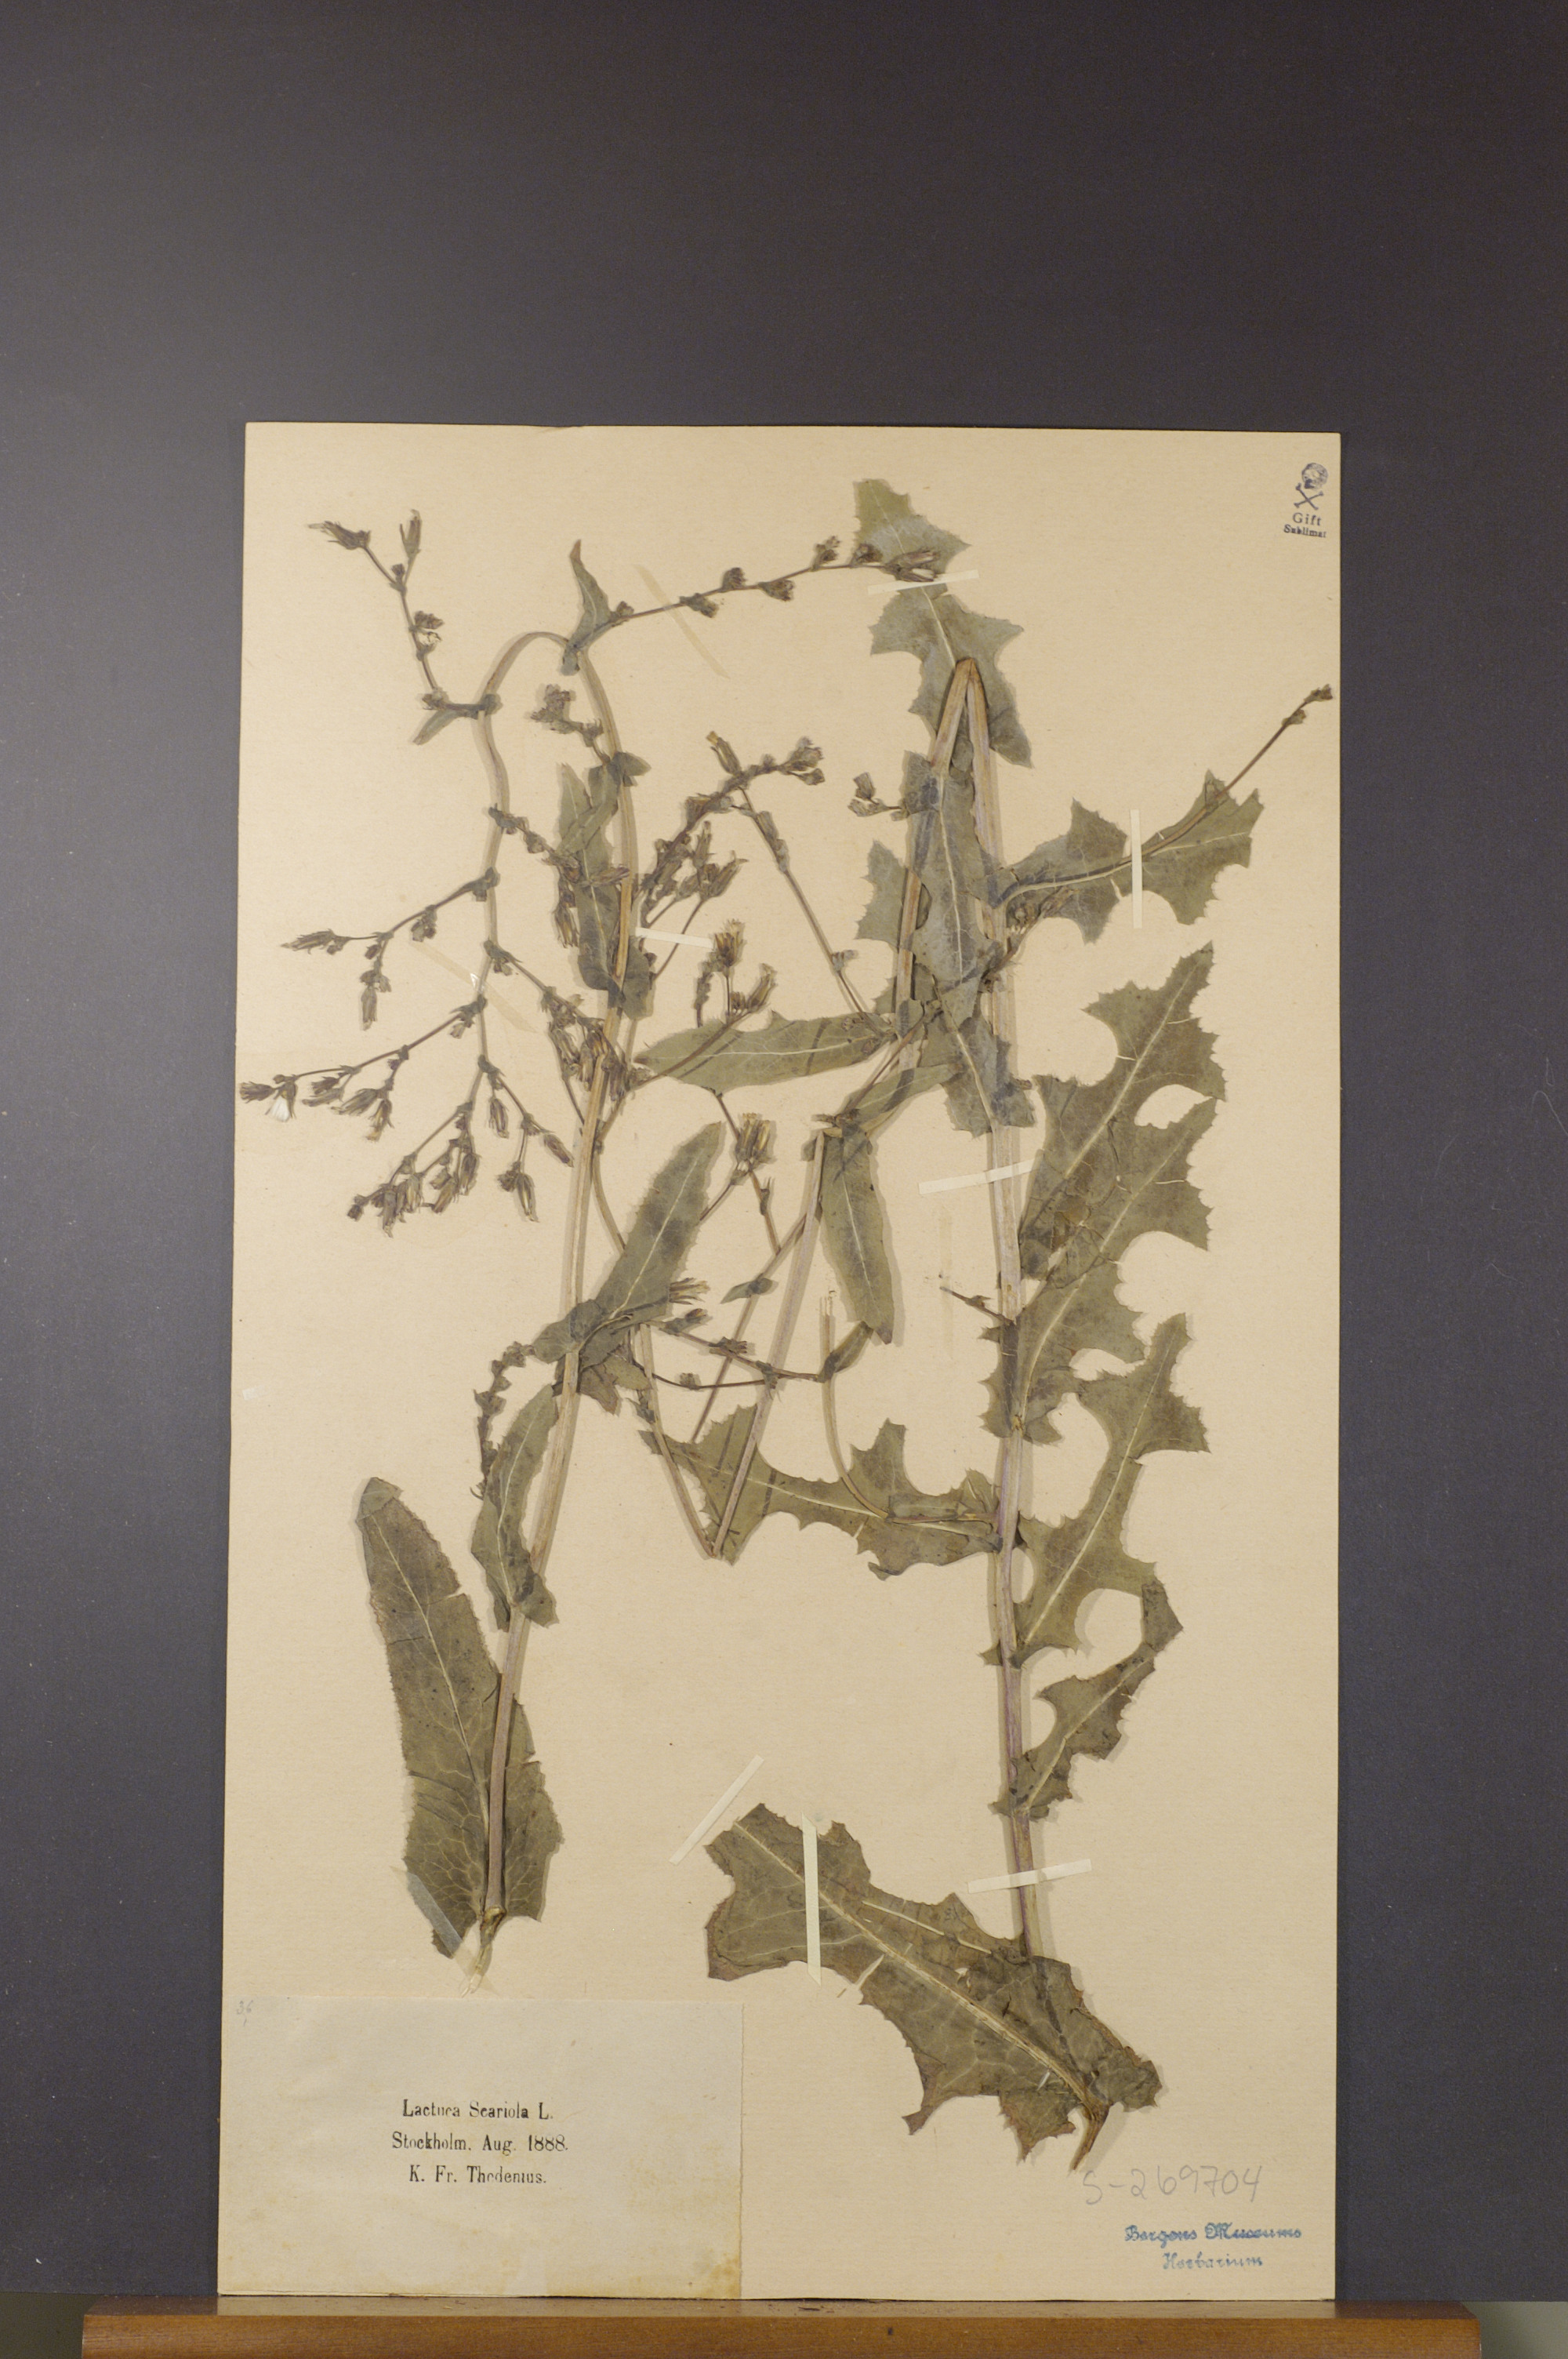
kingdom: Plantae
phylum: Tracheophyta
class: Magnoliopsida
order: Asterales
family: Asteraceae
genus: Lactuca
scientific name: Lactuca serriola
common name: Prickly lettuce
